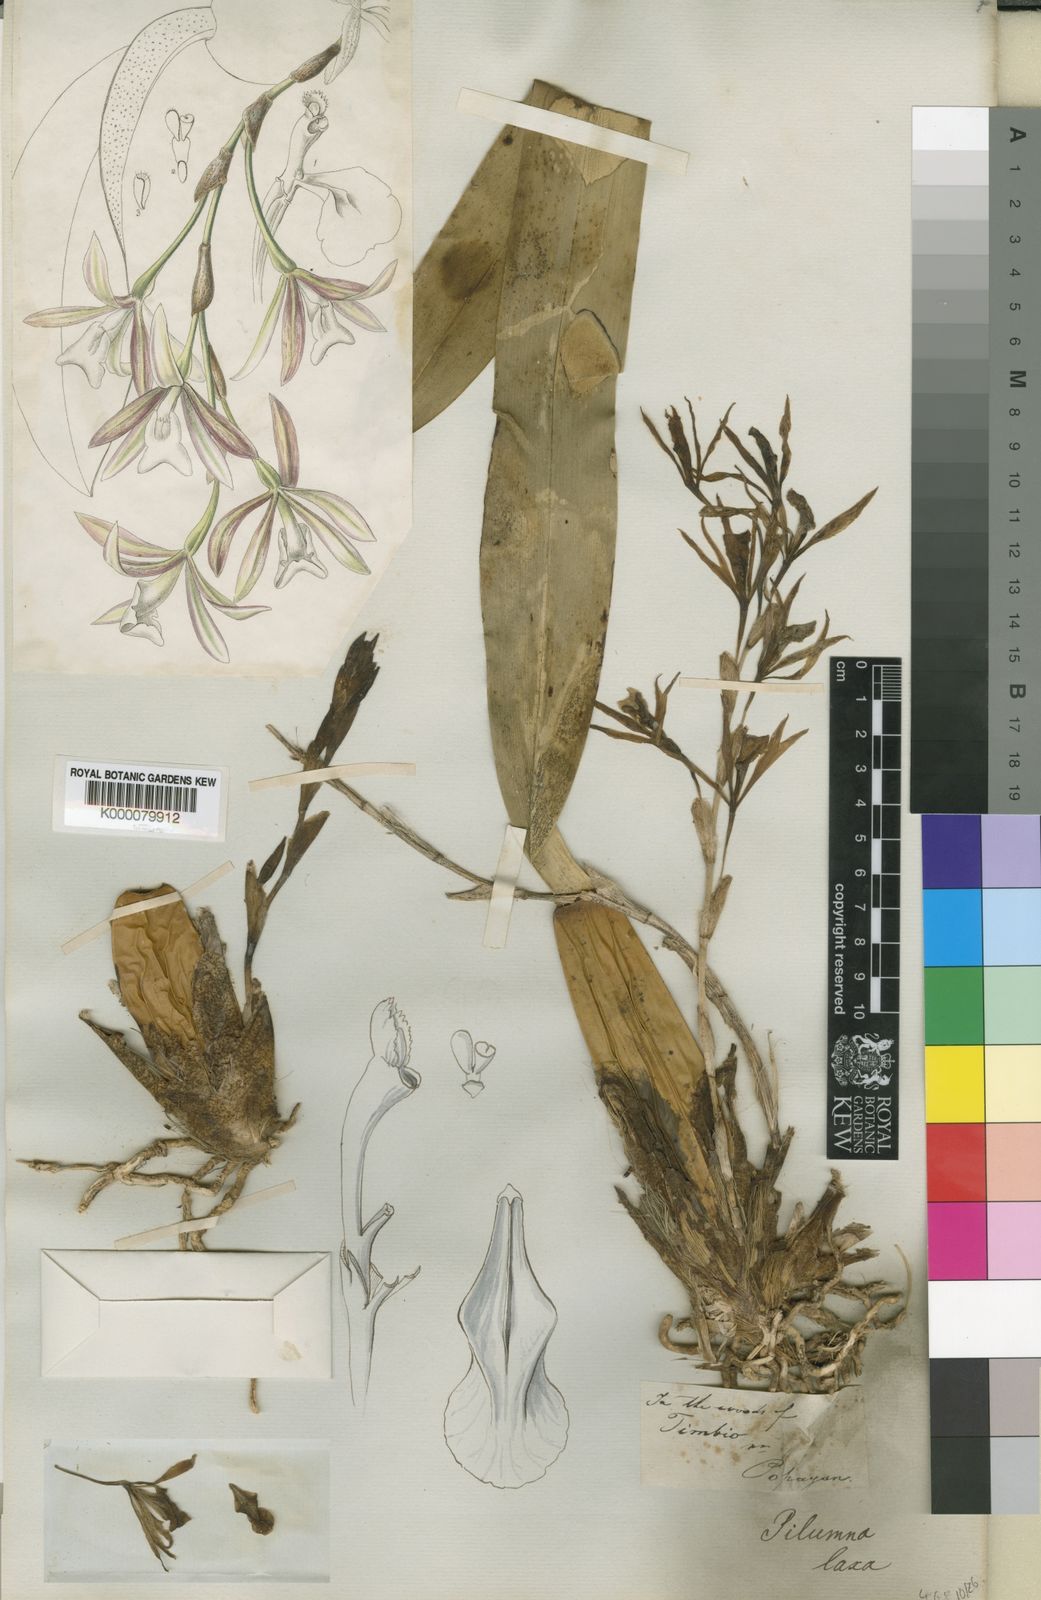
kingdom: Plantae
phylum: Tracheophyta
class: Liliopsida
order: Asparagales
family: Orchidaceae
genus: Trichopilia
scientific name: Trichopilia laxa
